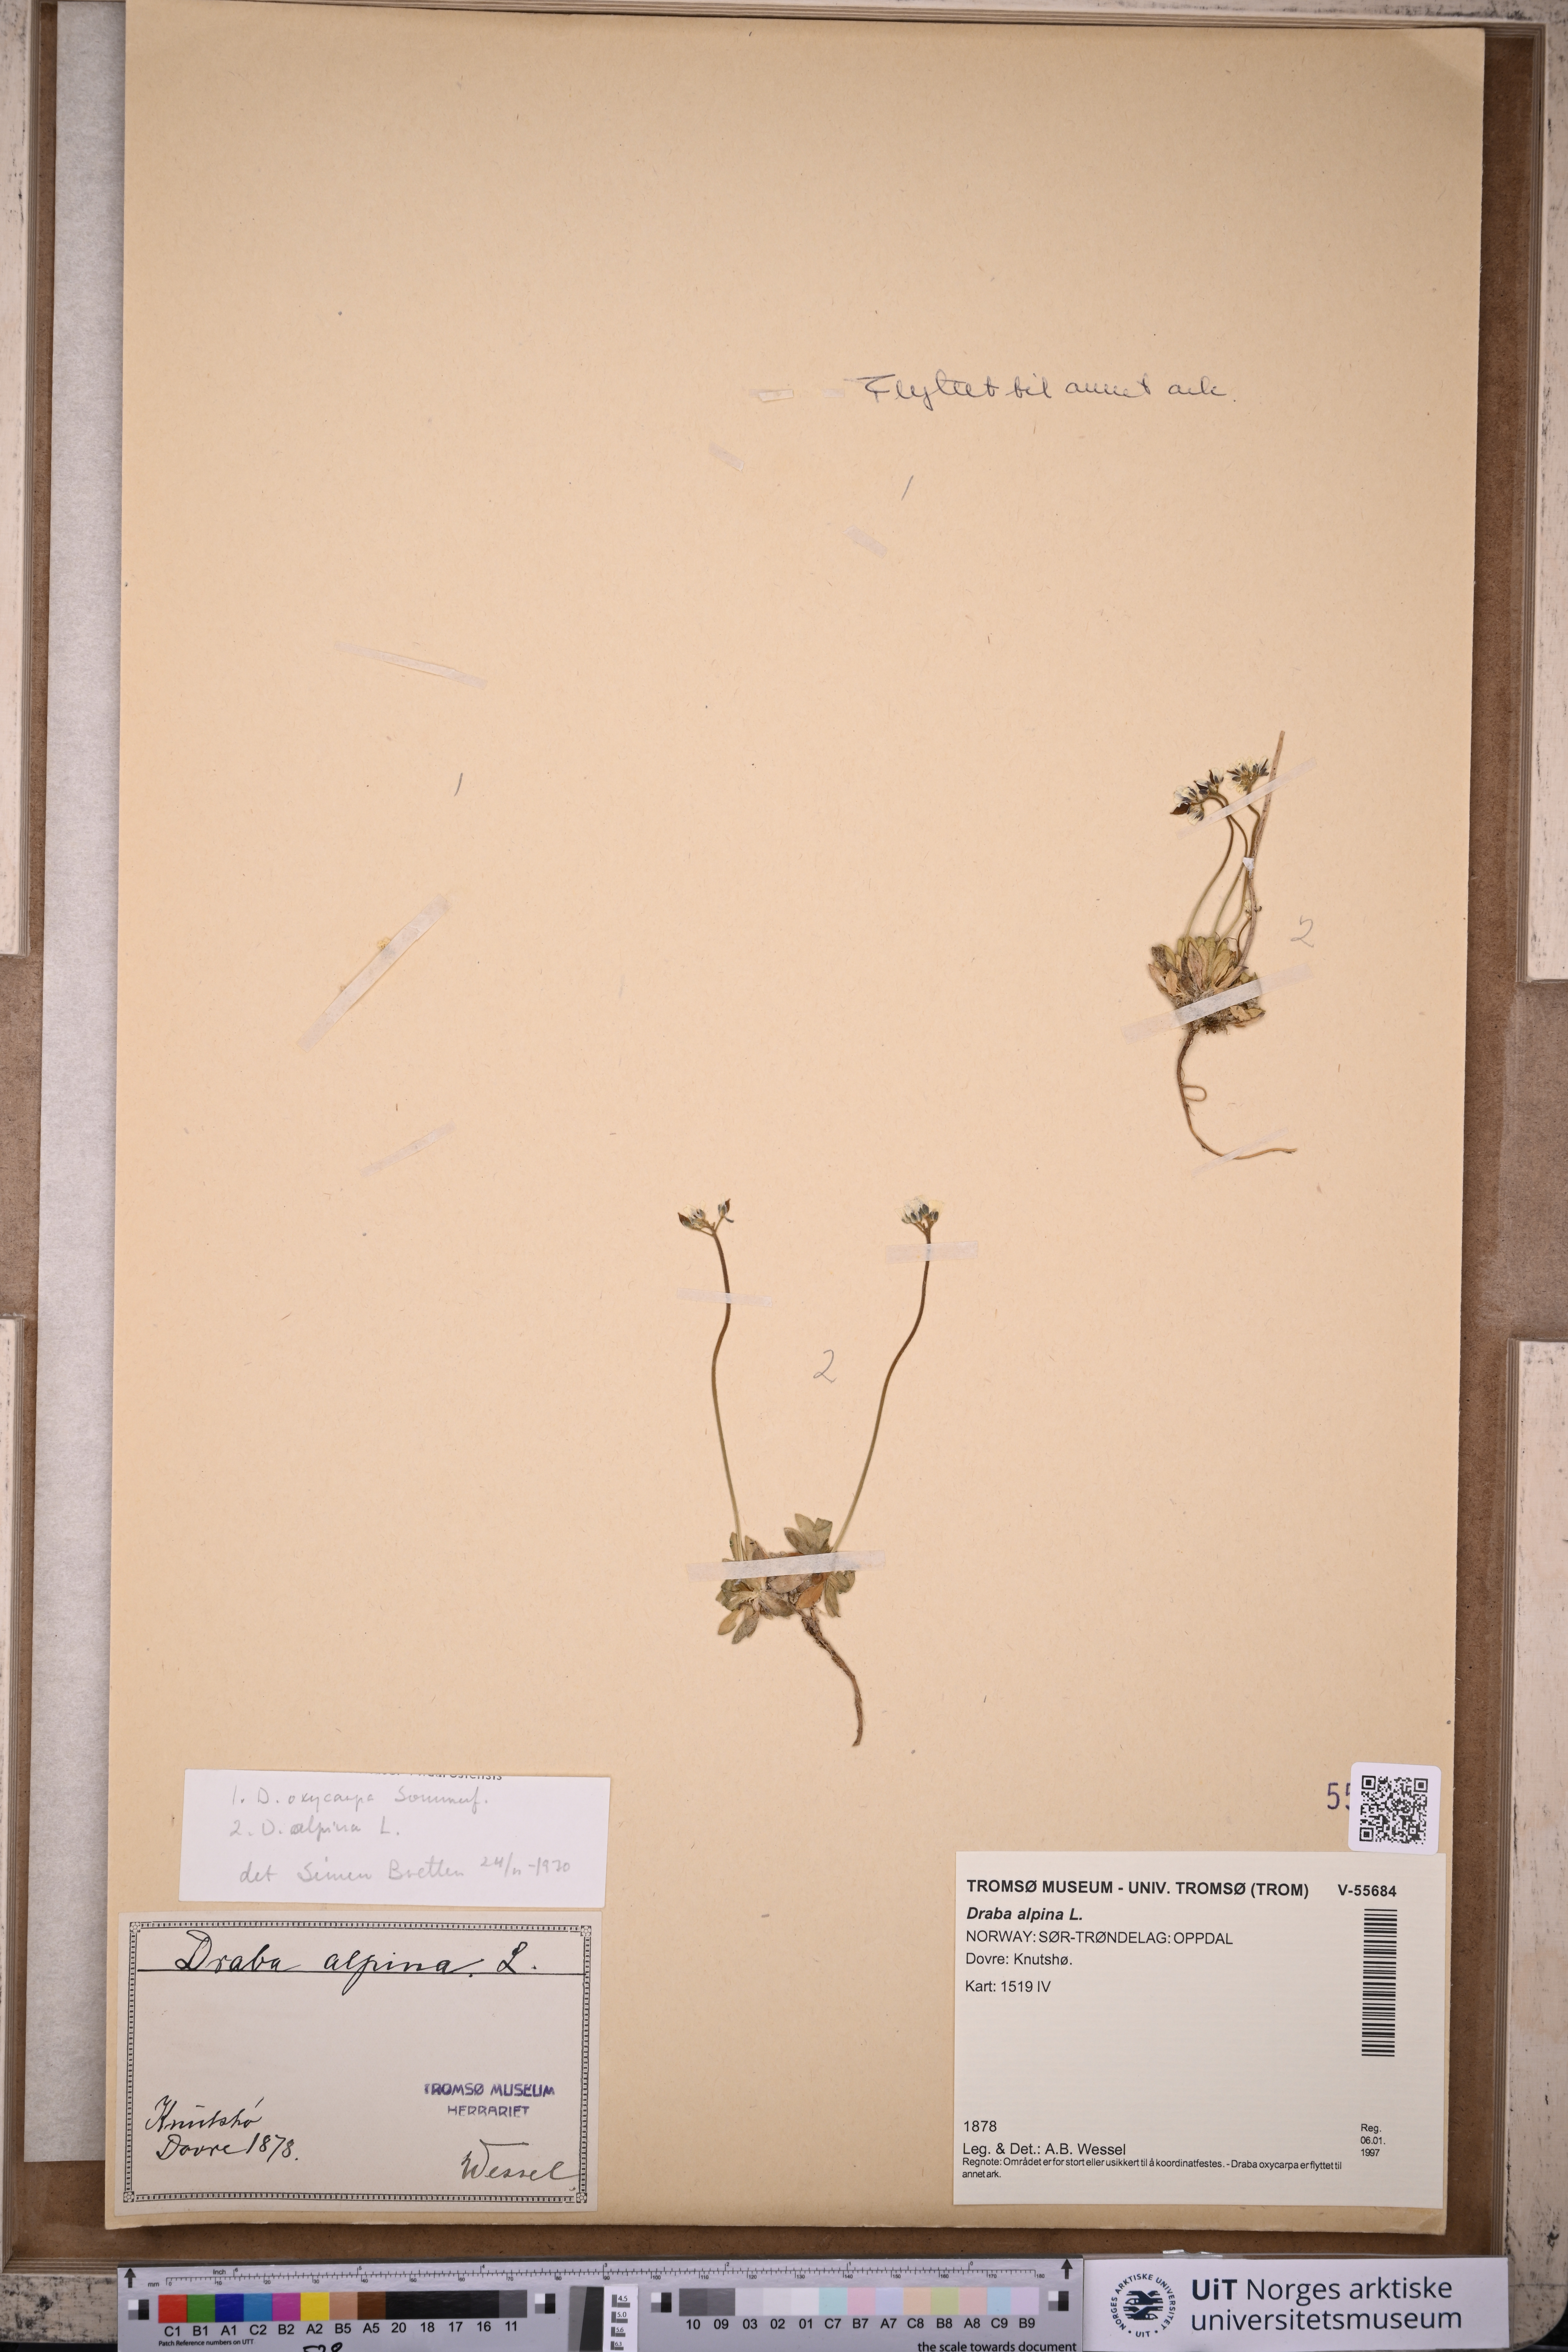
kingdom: Plantae
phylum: Tracheophyta
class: Magnoliopsida
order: Brassicales
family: Brassicaceae
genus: Draba
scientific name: Draba alpina
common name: Alpine draba
